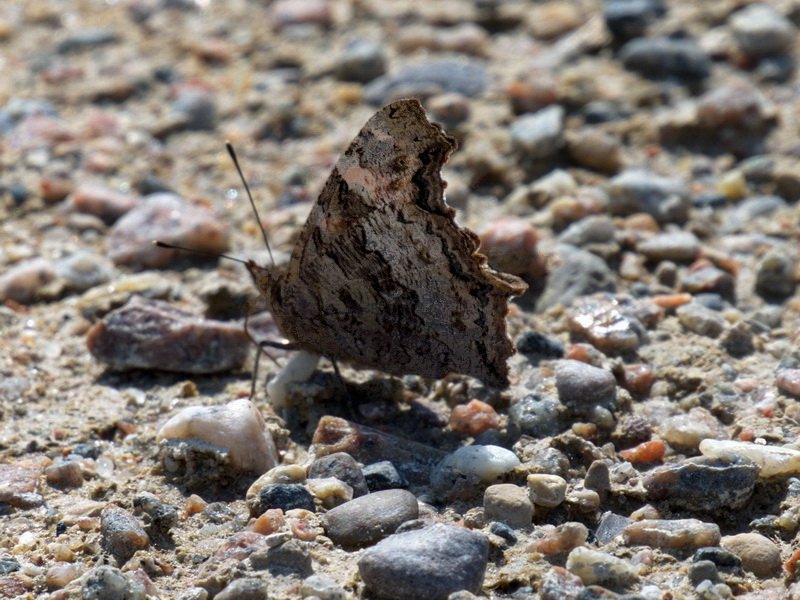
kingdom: Animalia
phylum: Arthropoda
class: Insecta
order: Lepidoptera
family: Nymphalidae
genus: Polygonia
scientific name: Polygonia vaualbum
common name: Compton Tortoiseshell
